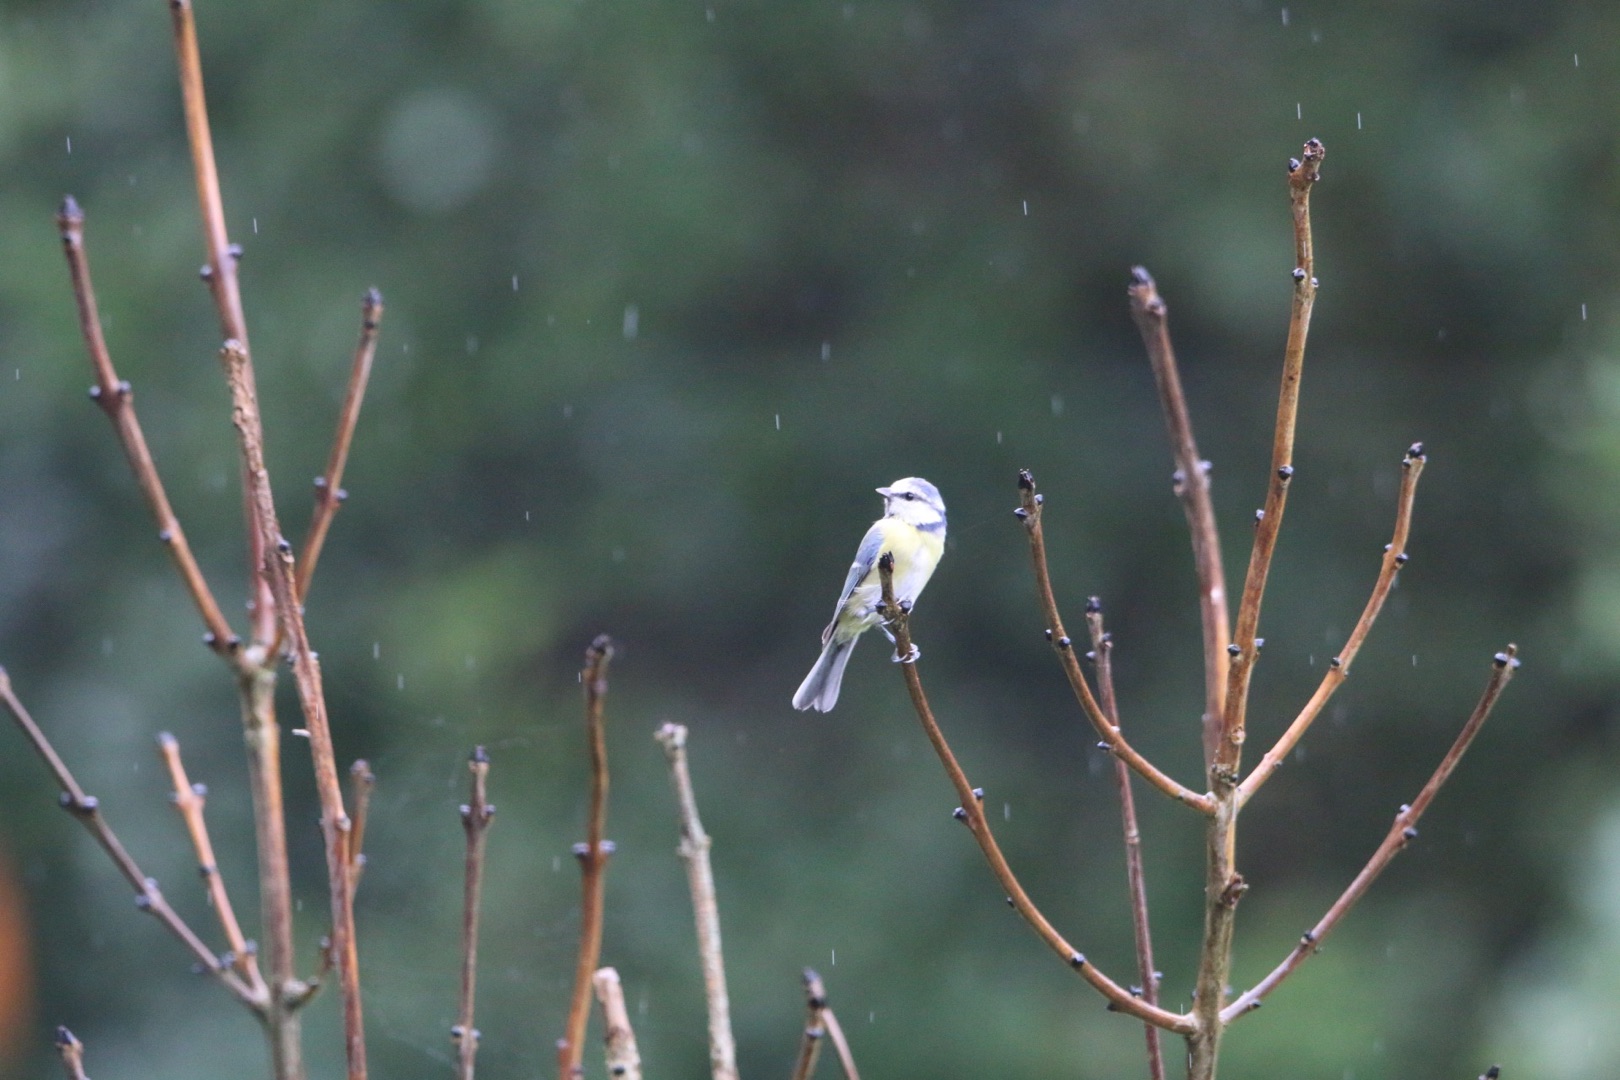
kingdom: Animalia
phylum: Chordata
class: Aves
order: Passeriformes
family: Paridae
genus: Cyanistes
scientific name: Cyanistes caeruleus
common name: Blåmejse
